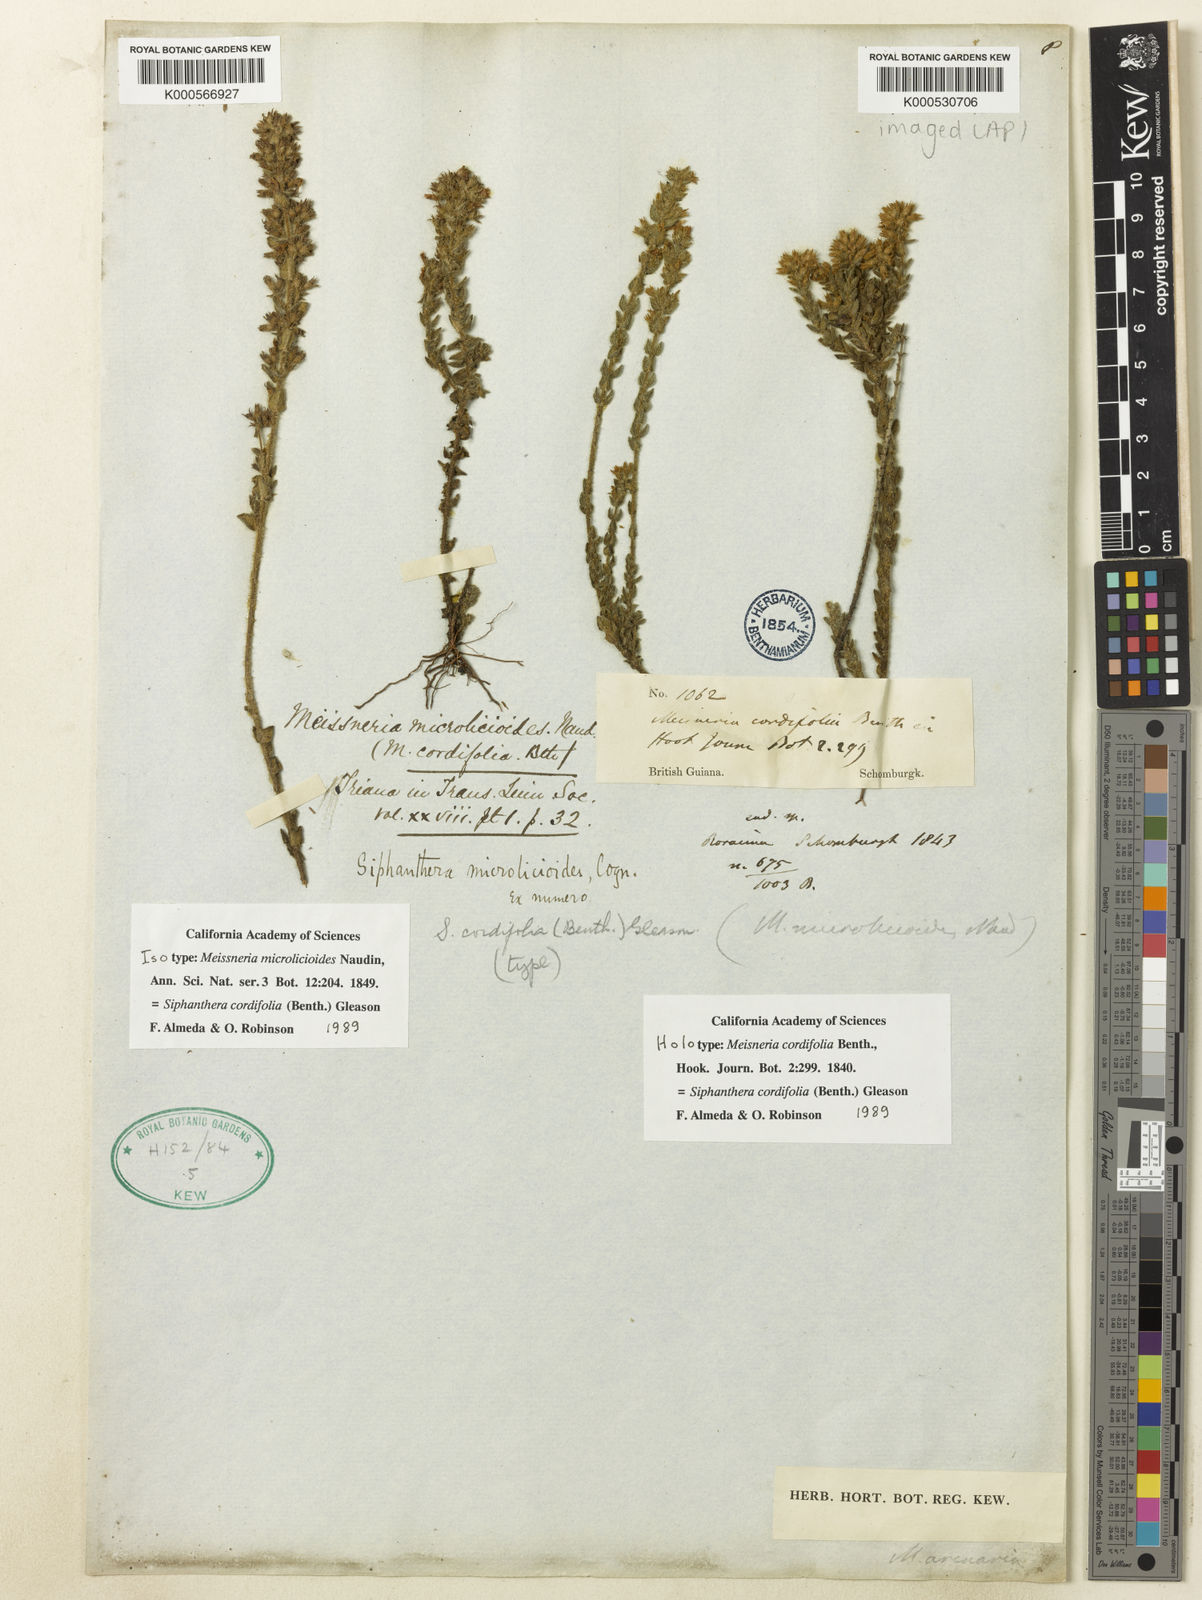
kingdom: Plantae
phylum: Tracheophyta
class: Magnoliopsida
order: Myrtales
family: Melastomataceae
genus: Siphanthera
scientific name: Siphanthera cordifolia
